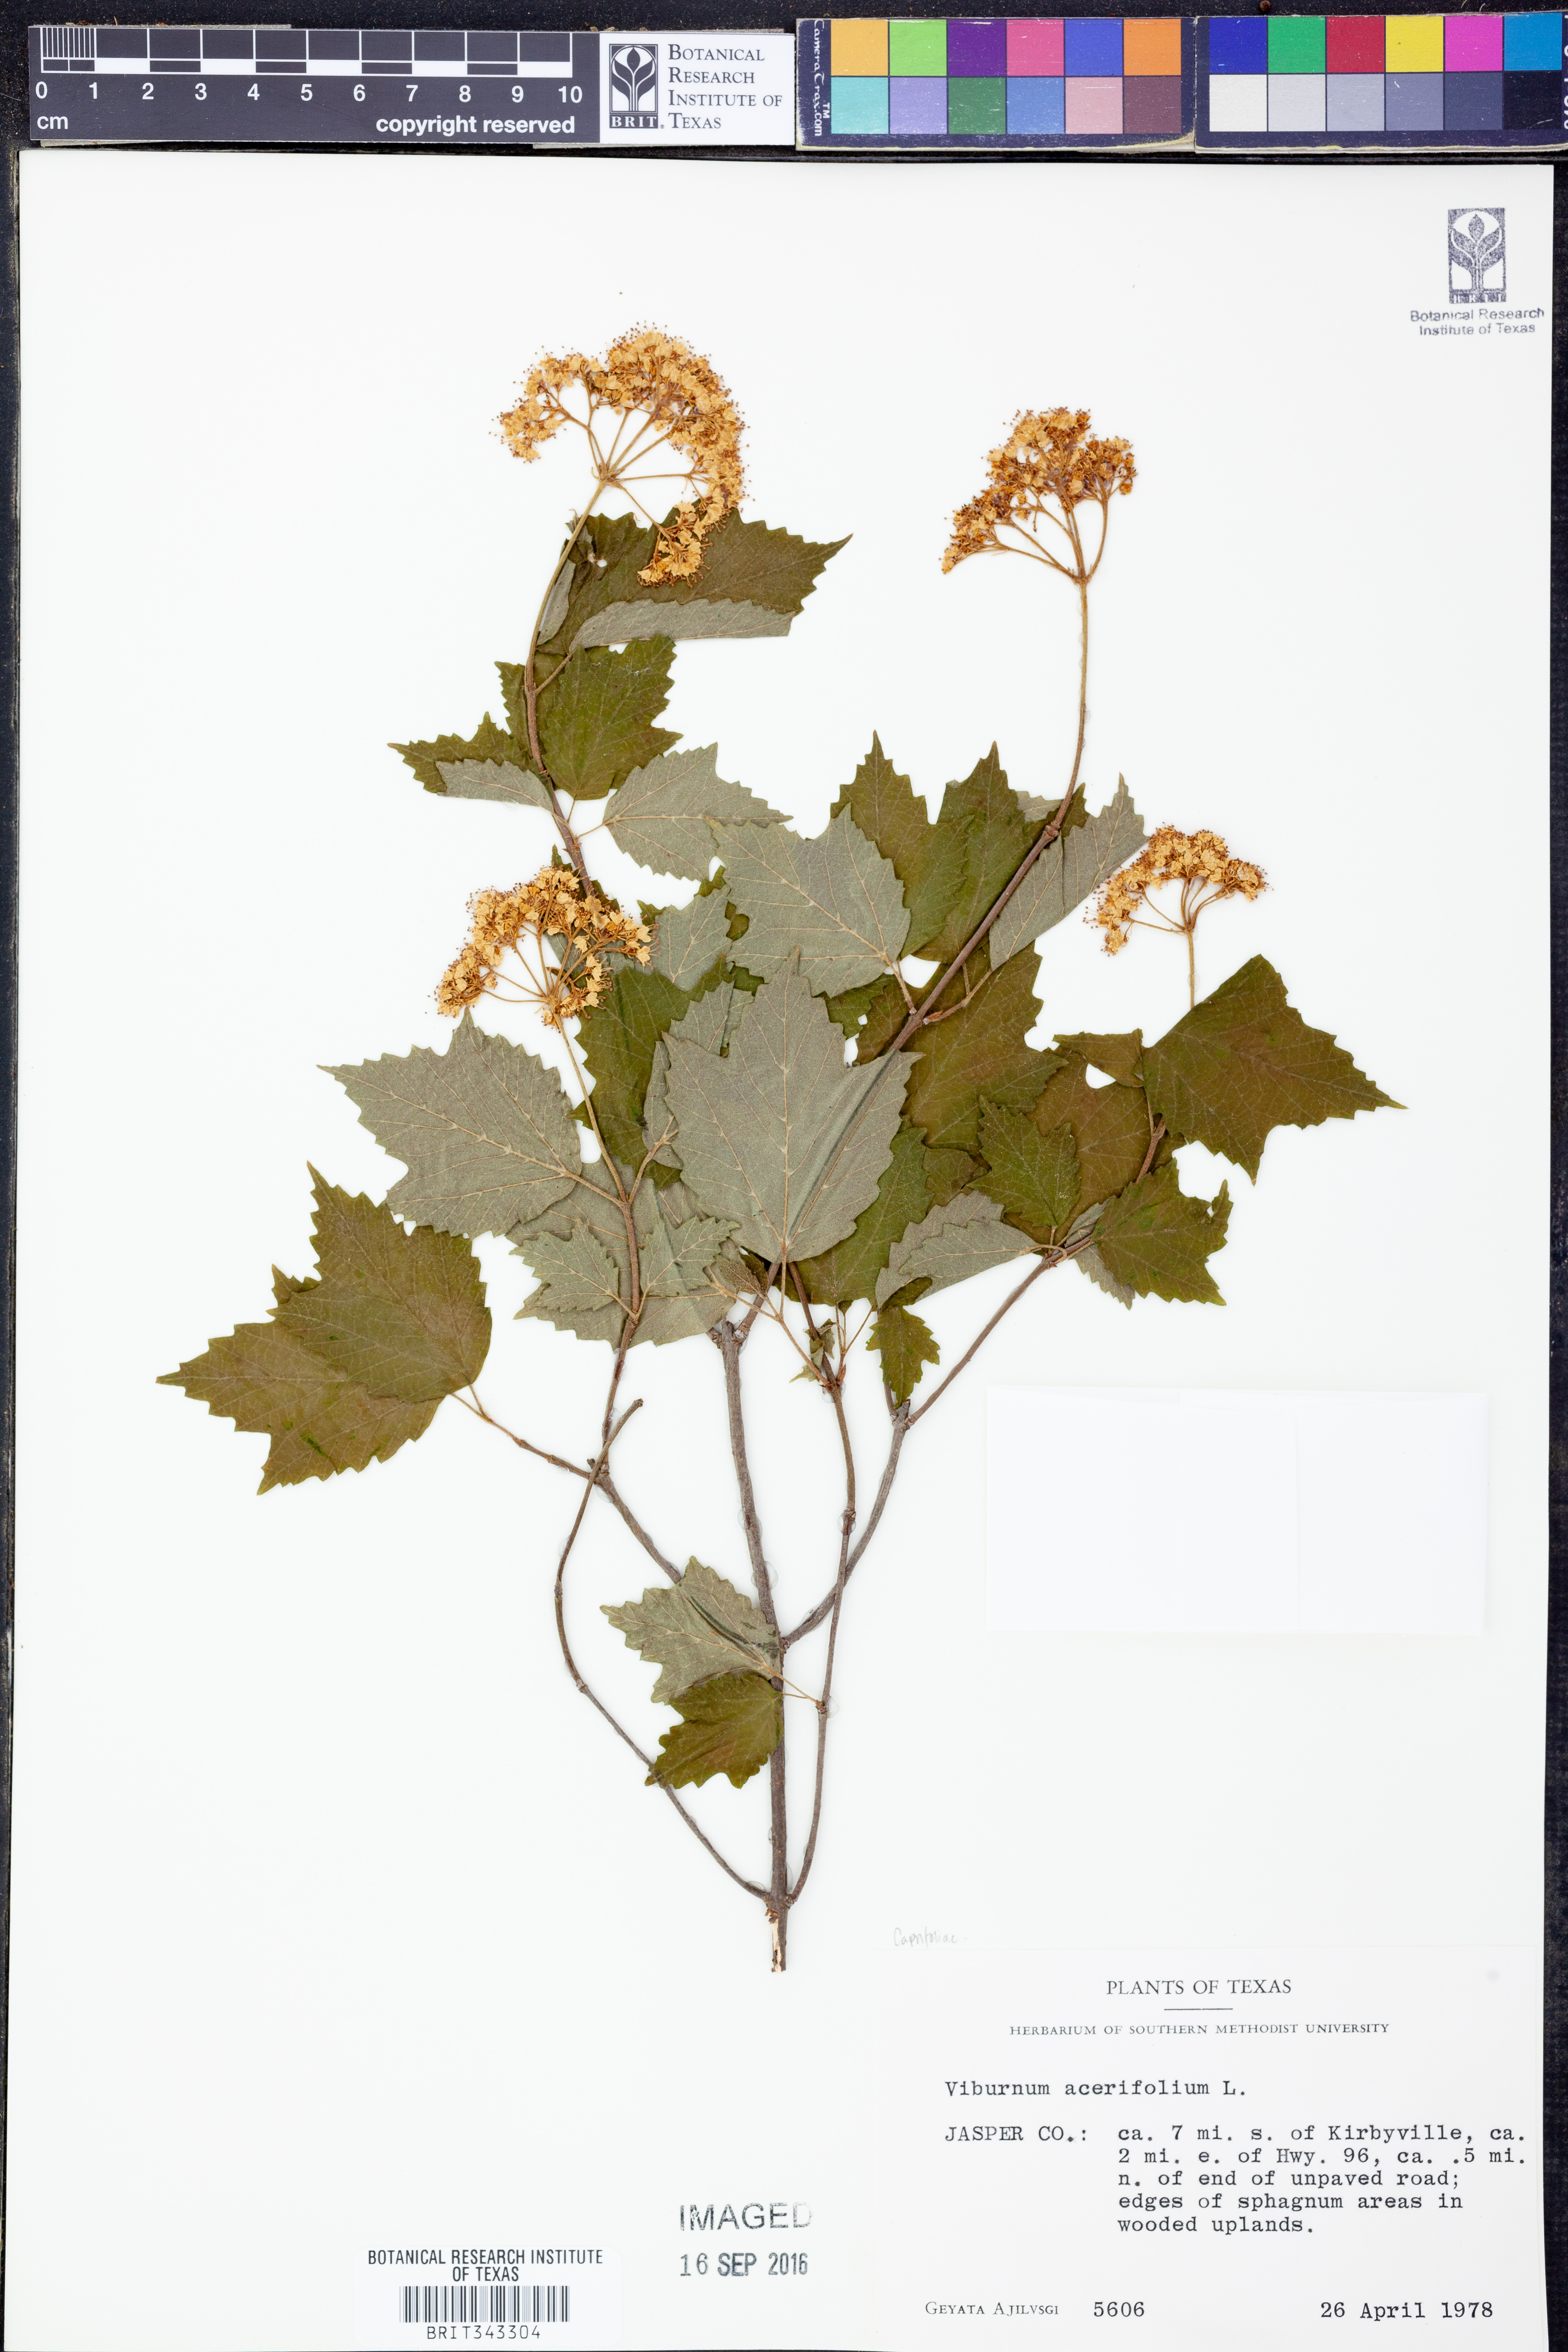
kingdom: Plantae
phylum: Tracheophyta
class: Magnoliopsida
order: Dipsacales
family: Viburnaceae
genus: Viburnum
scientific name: Viburnum acerifolium
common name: Dockmackie
